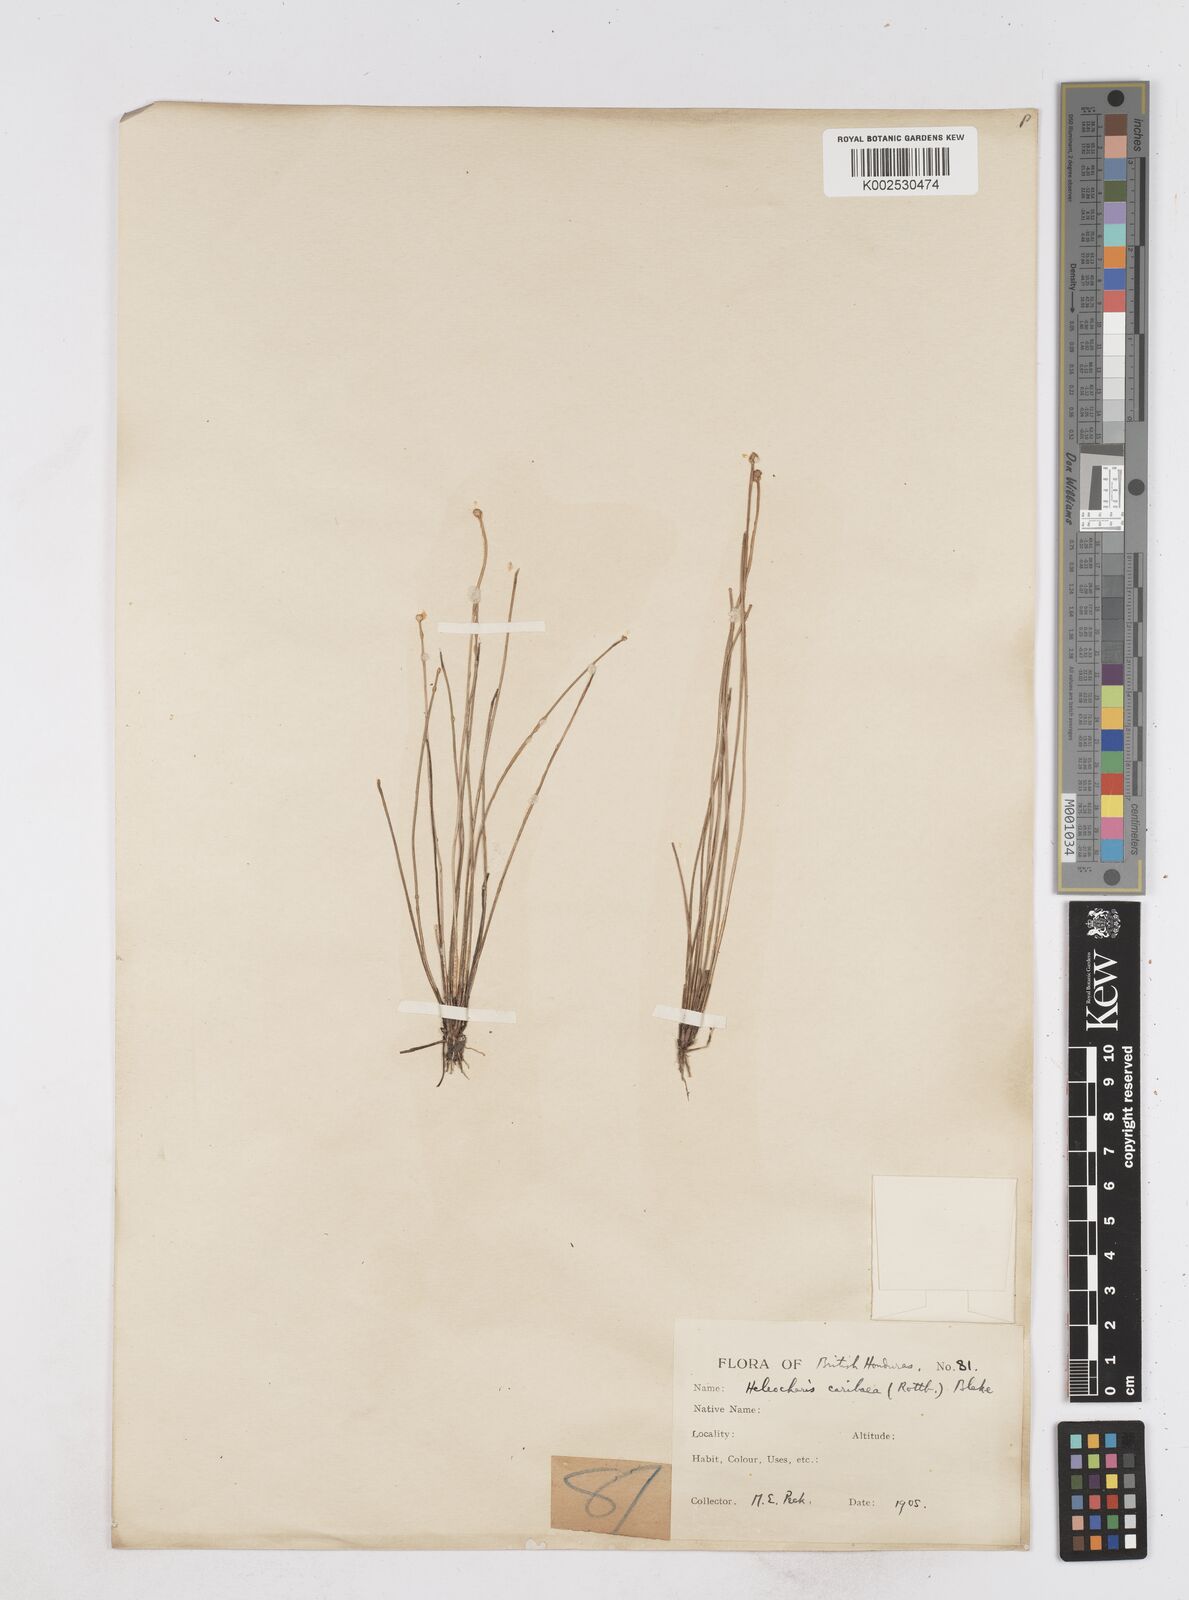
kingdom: Plantae
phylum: Tracheophyta
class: Liliopsida
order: Poales
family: Cyperaceae
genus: Eleocharis
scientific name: Eleocharis geniculata
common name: Canada spikesedge
